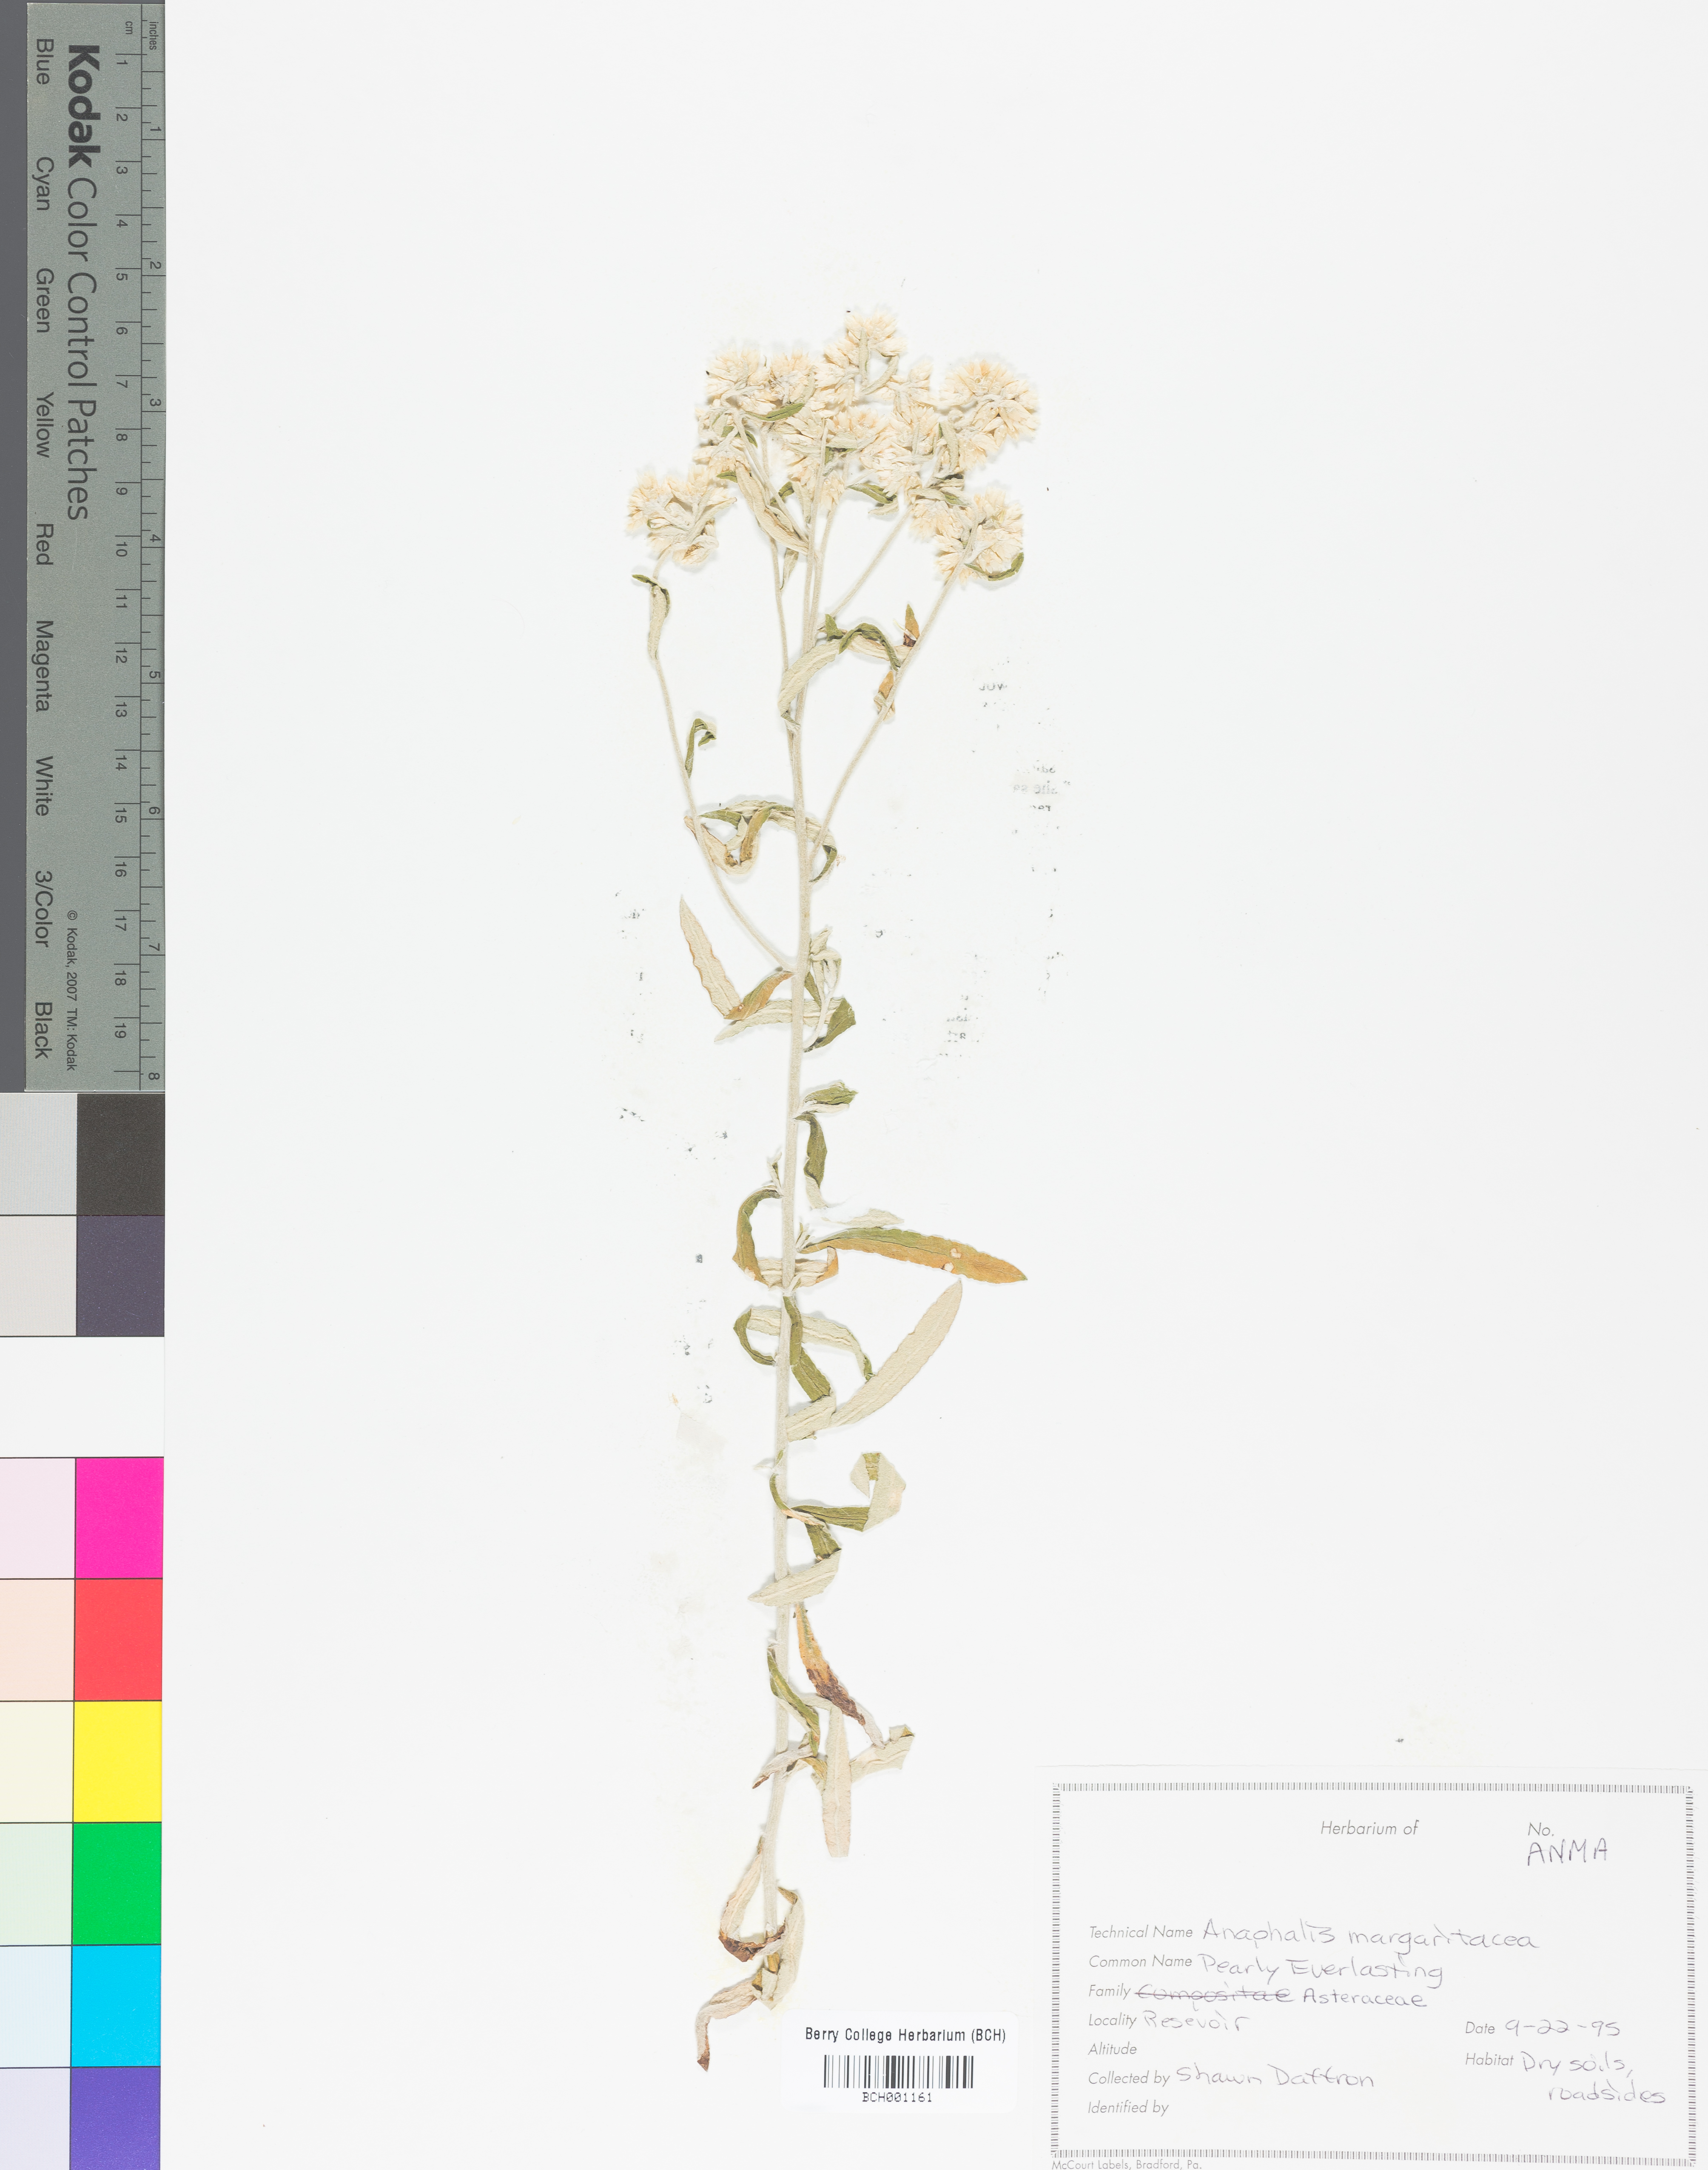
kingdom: Plantae
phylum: Tracheophyta
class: Magnoliopsida
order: Asterales
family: Asteraceae
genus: Anaphalis
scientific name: Anaphalis margaritacea
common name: Pearly everlasting
